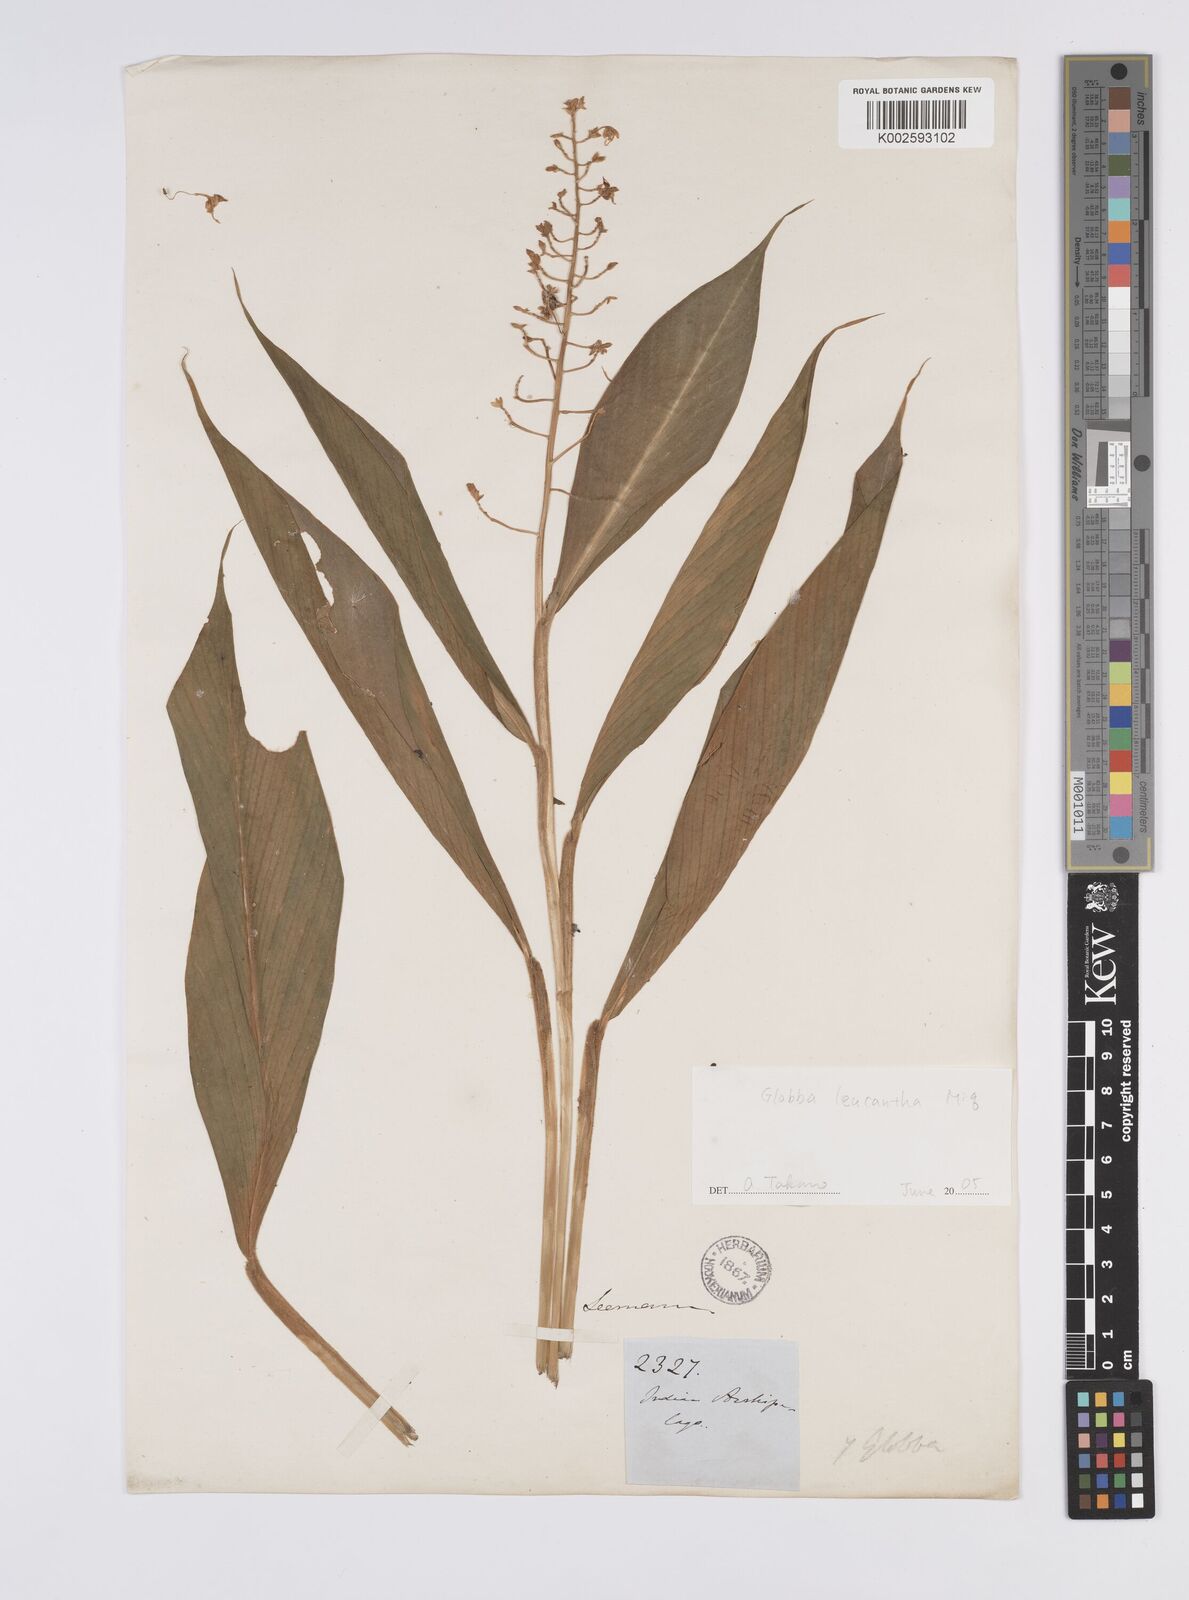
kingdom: Plantae
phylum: Tracheophyta
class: Liliopsida
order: Zingiberales
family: Zingiberaceae
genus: Globba
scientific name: Globba leucantha
